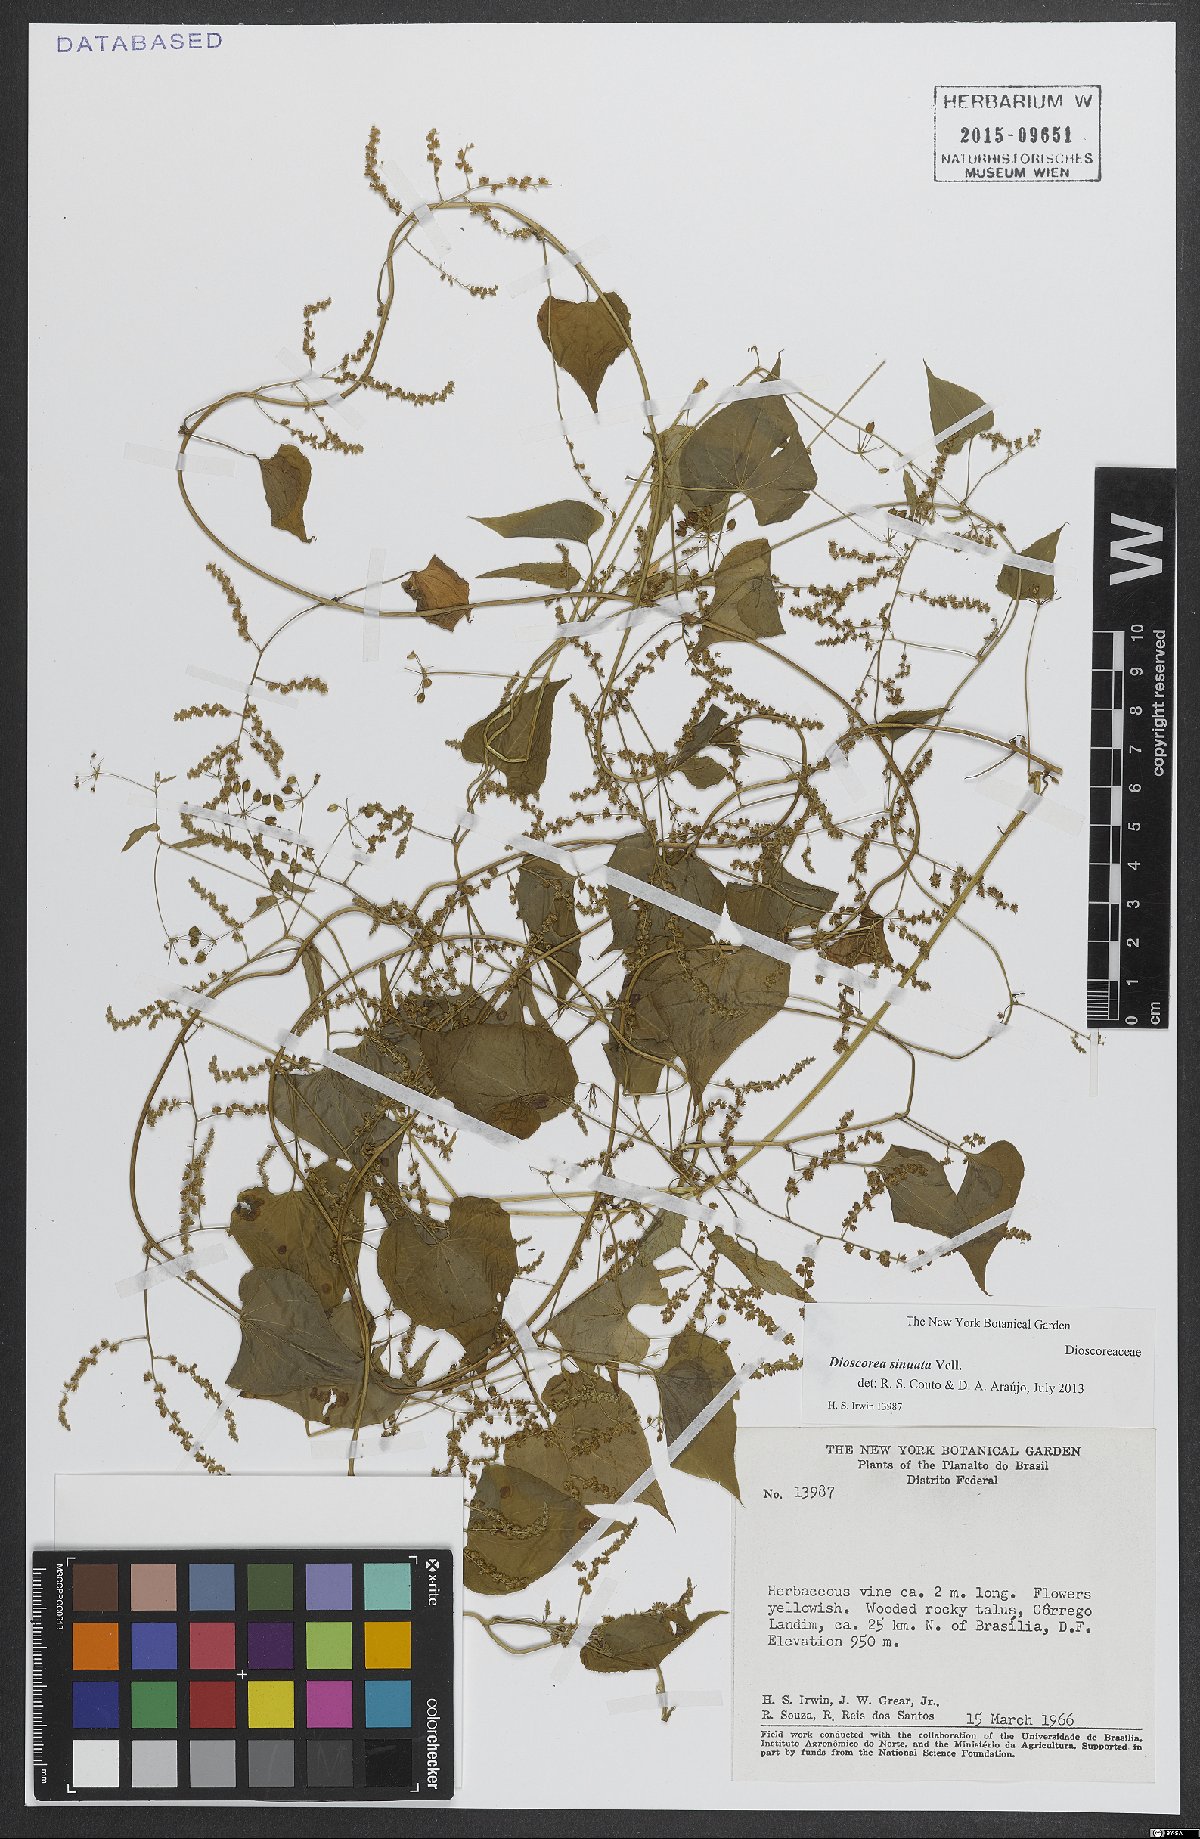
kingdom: Plantae
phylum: Tracheophyta
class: Liliopsida
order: Dioscoreales
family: Dioscoreaceae
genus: Dioscorea
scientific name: Dioscorea sinuata
